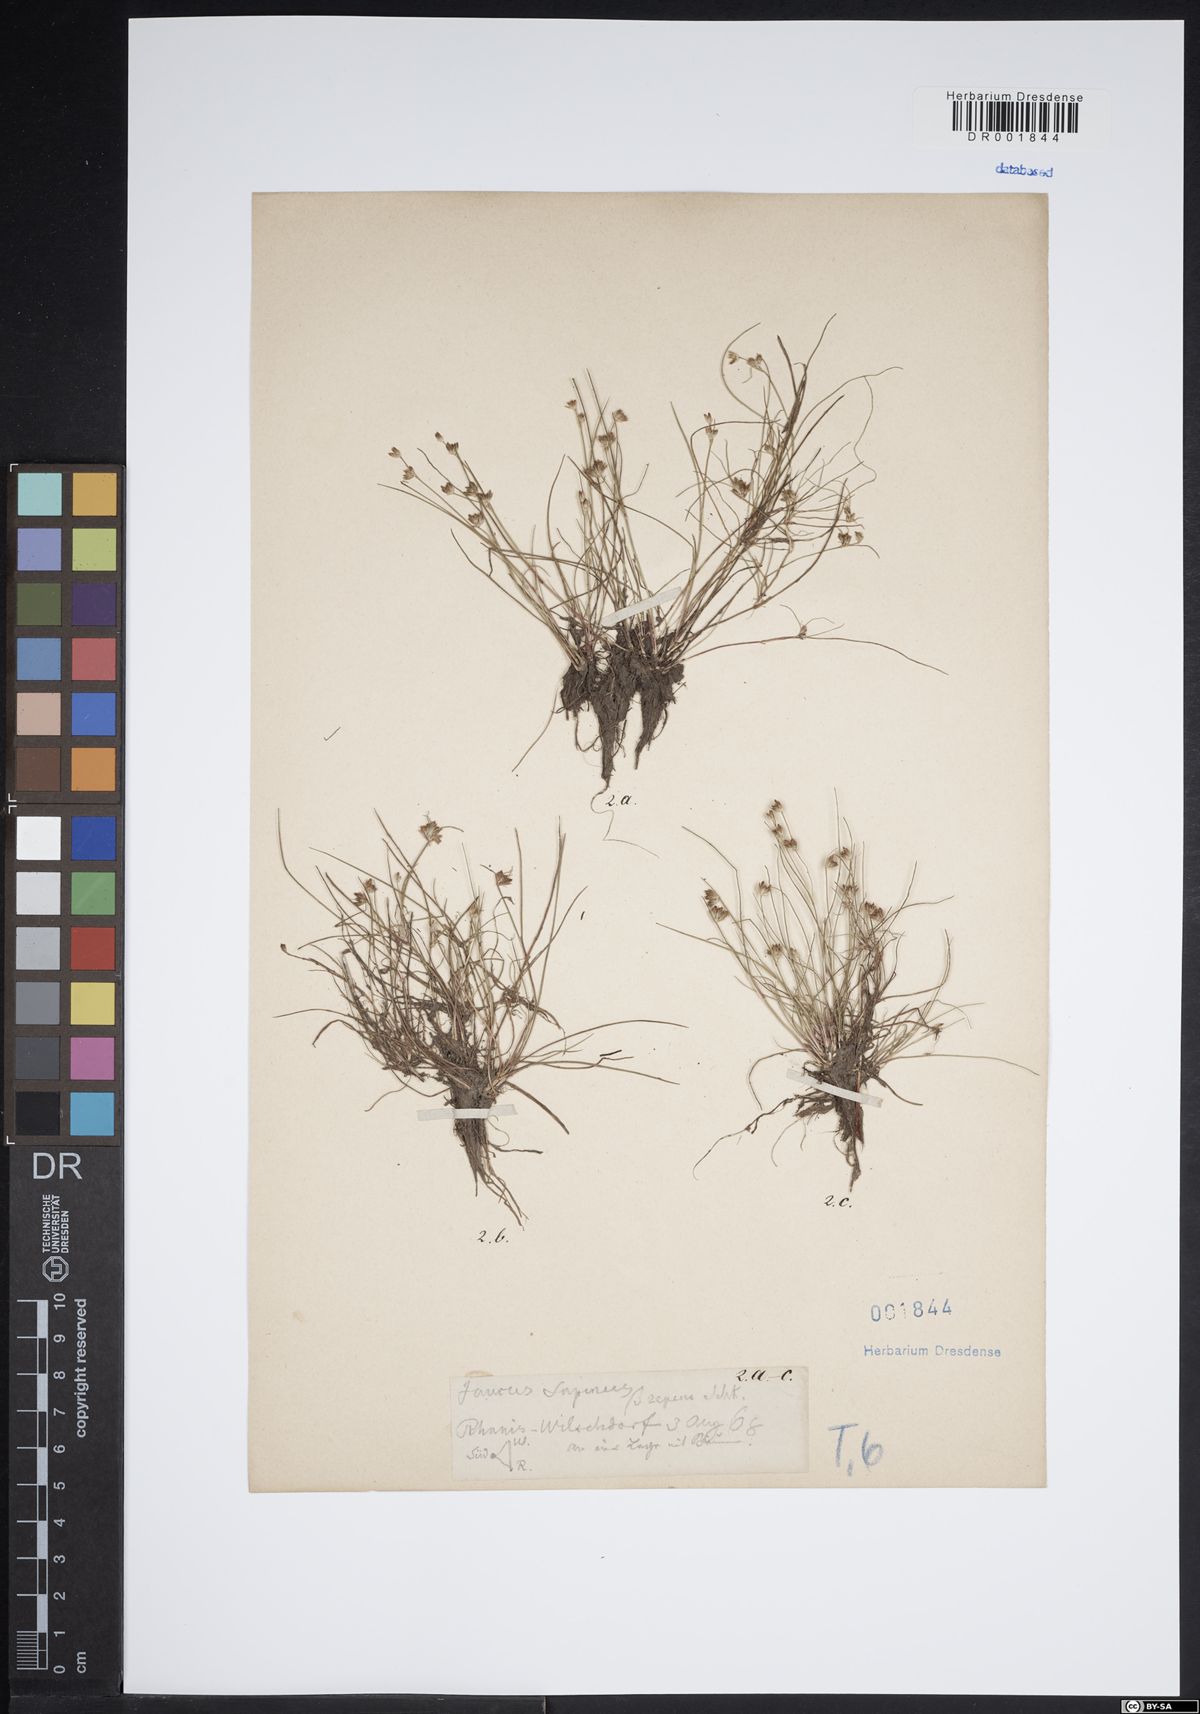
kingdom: Plantae
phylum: Tracheophyta
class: Liliopsida
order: Poales
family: Juncaceae
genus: Juncus
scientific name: Juncus bulbosus
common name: Bulbous rush
